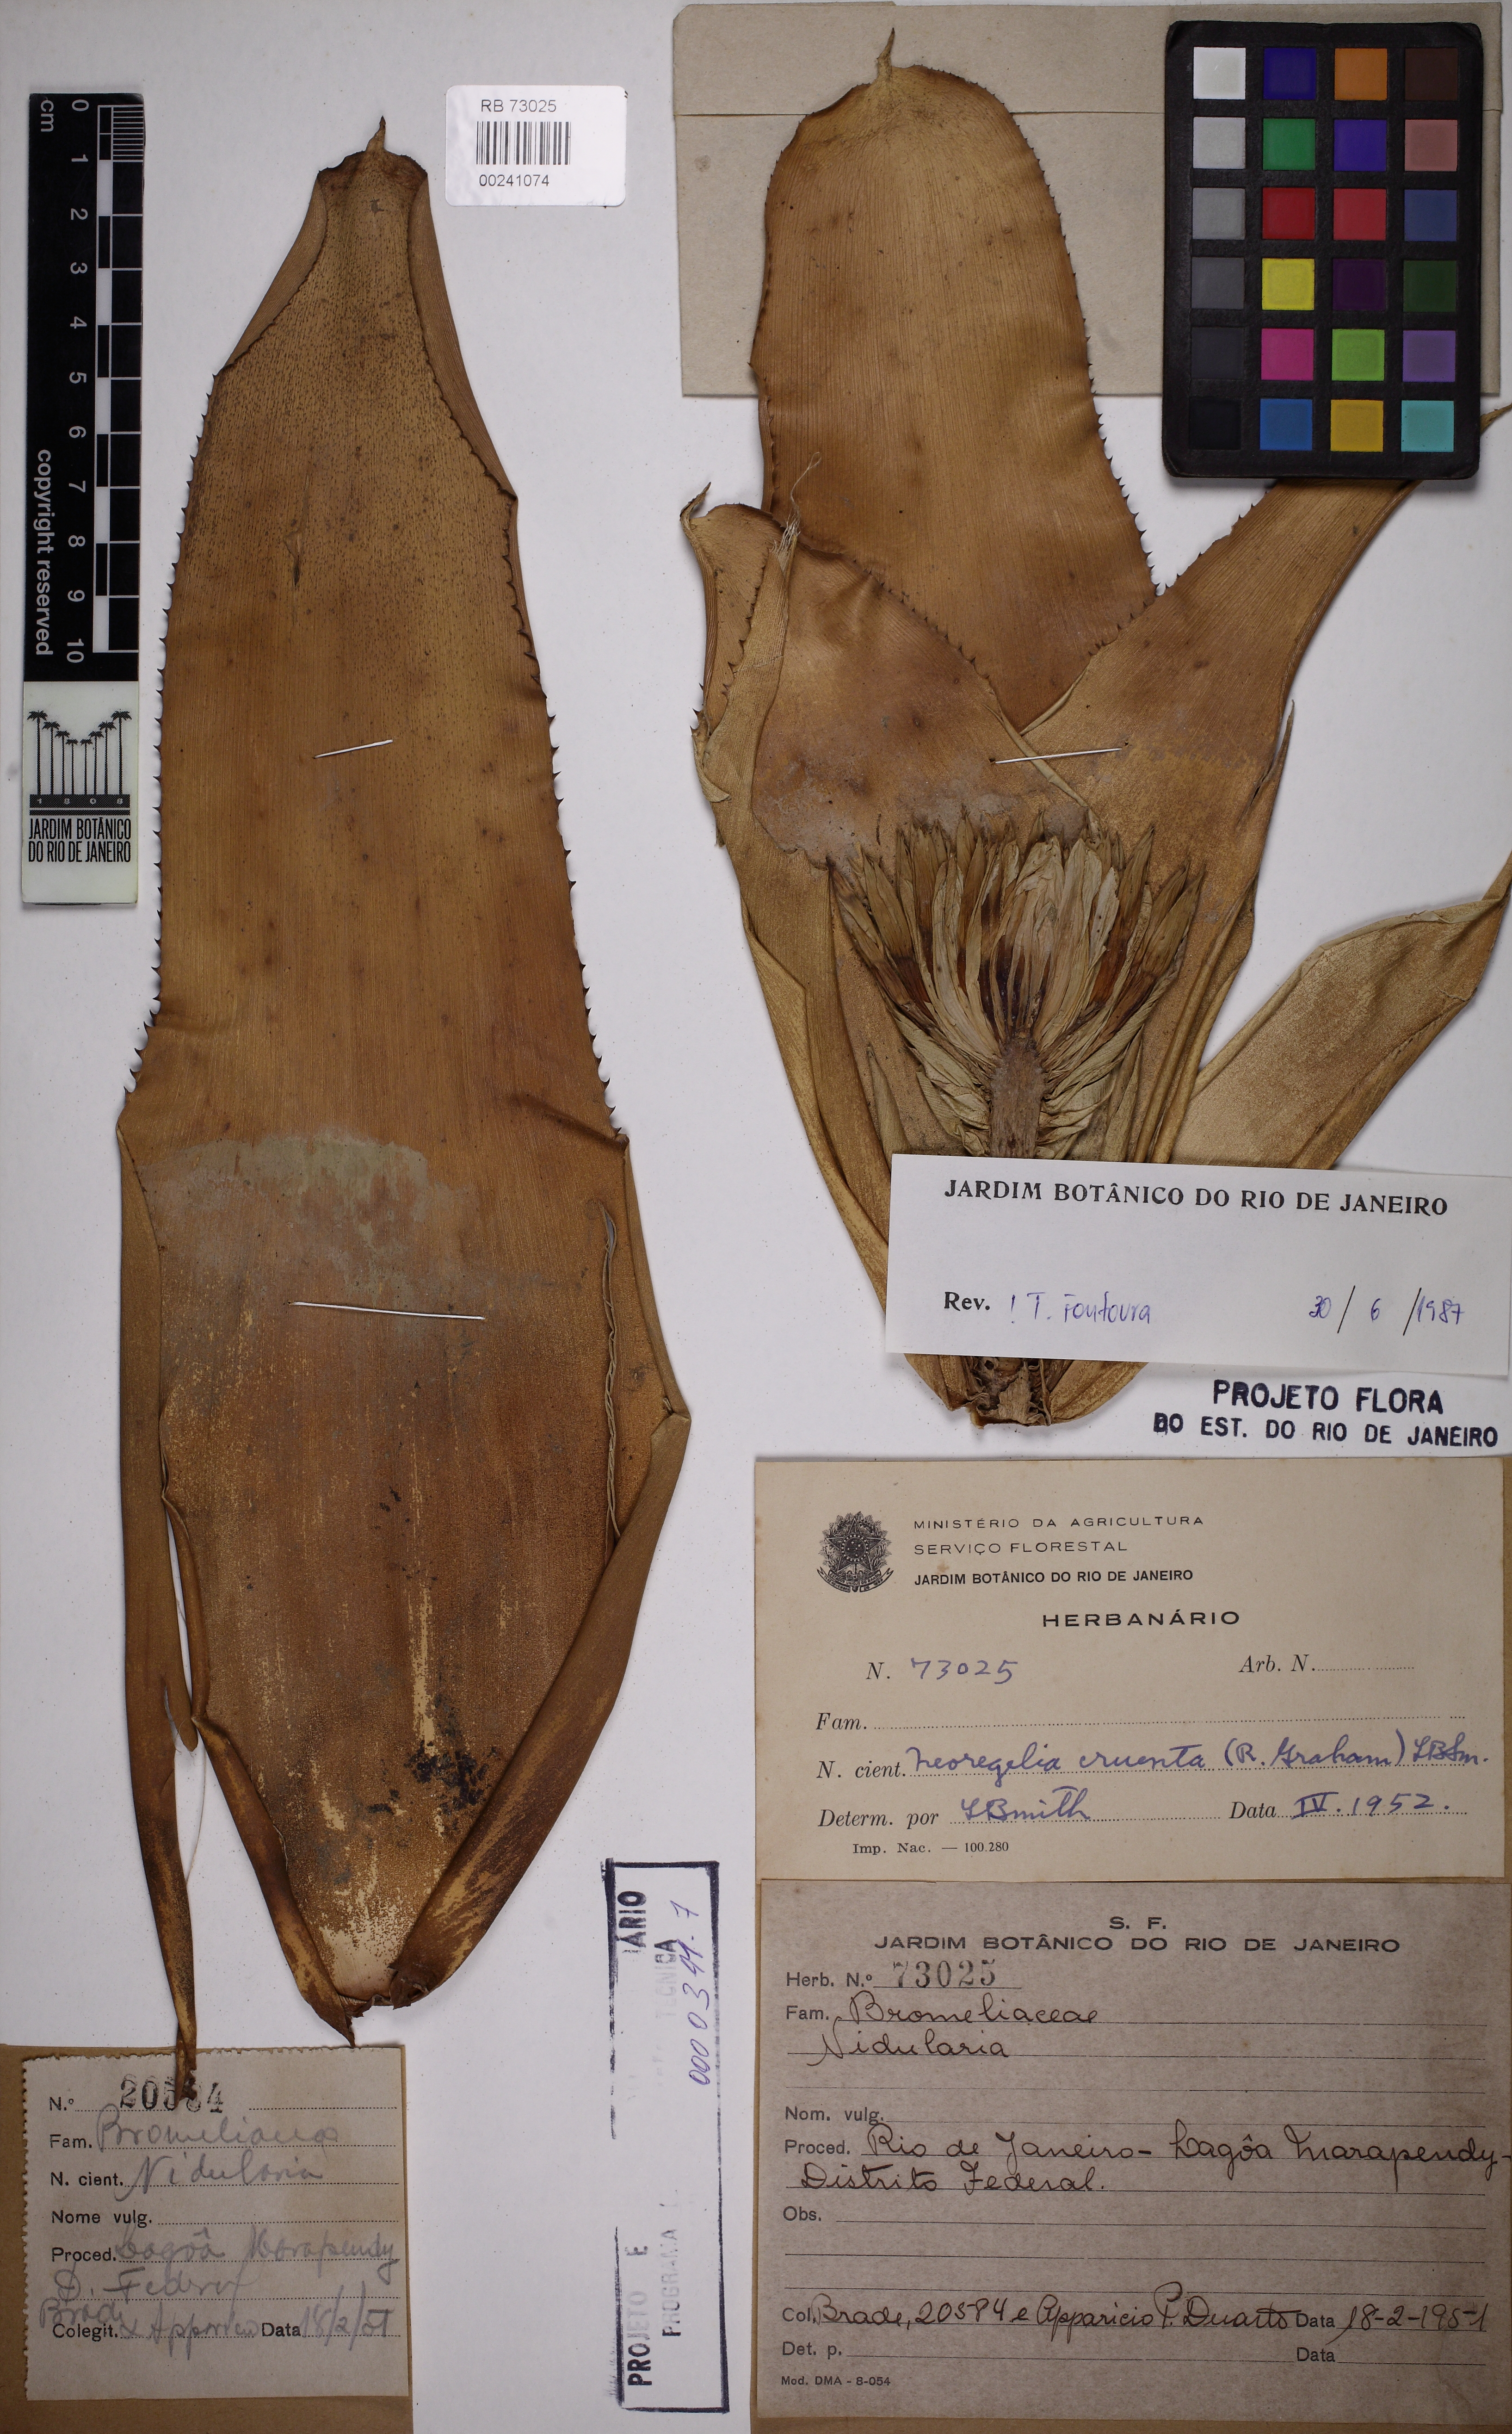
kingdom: Plantae
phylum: Tracheophyta
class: Liliopsida
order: Poales
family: Bromeliaceae
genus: Neoregelia
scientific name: Neoregelia cruenta
